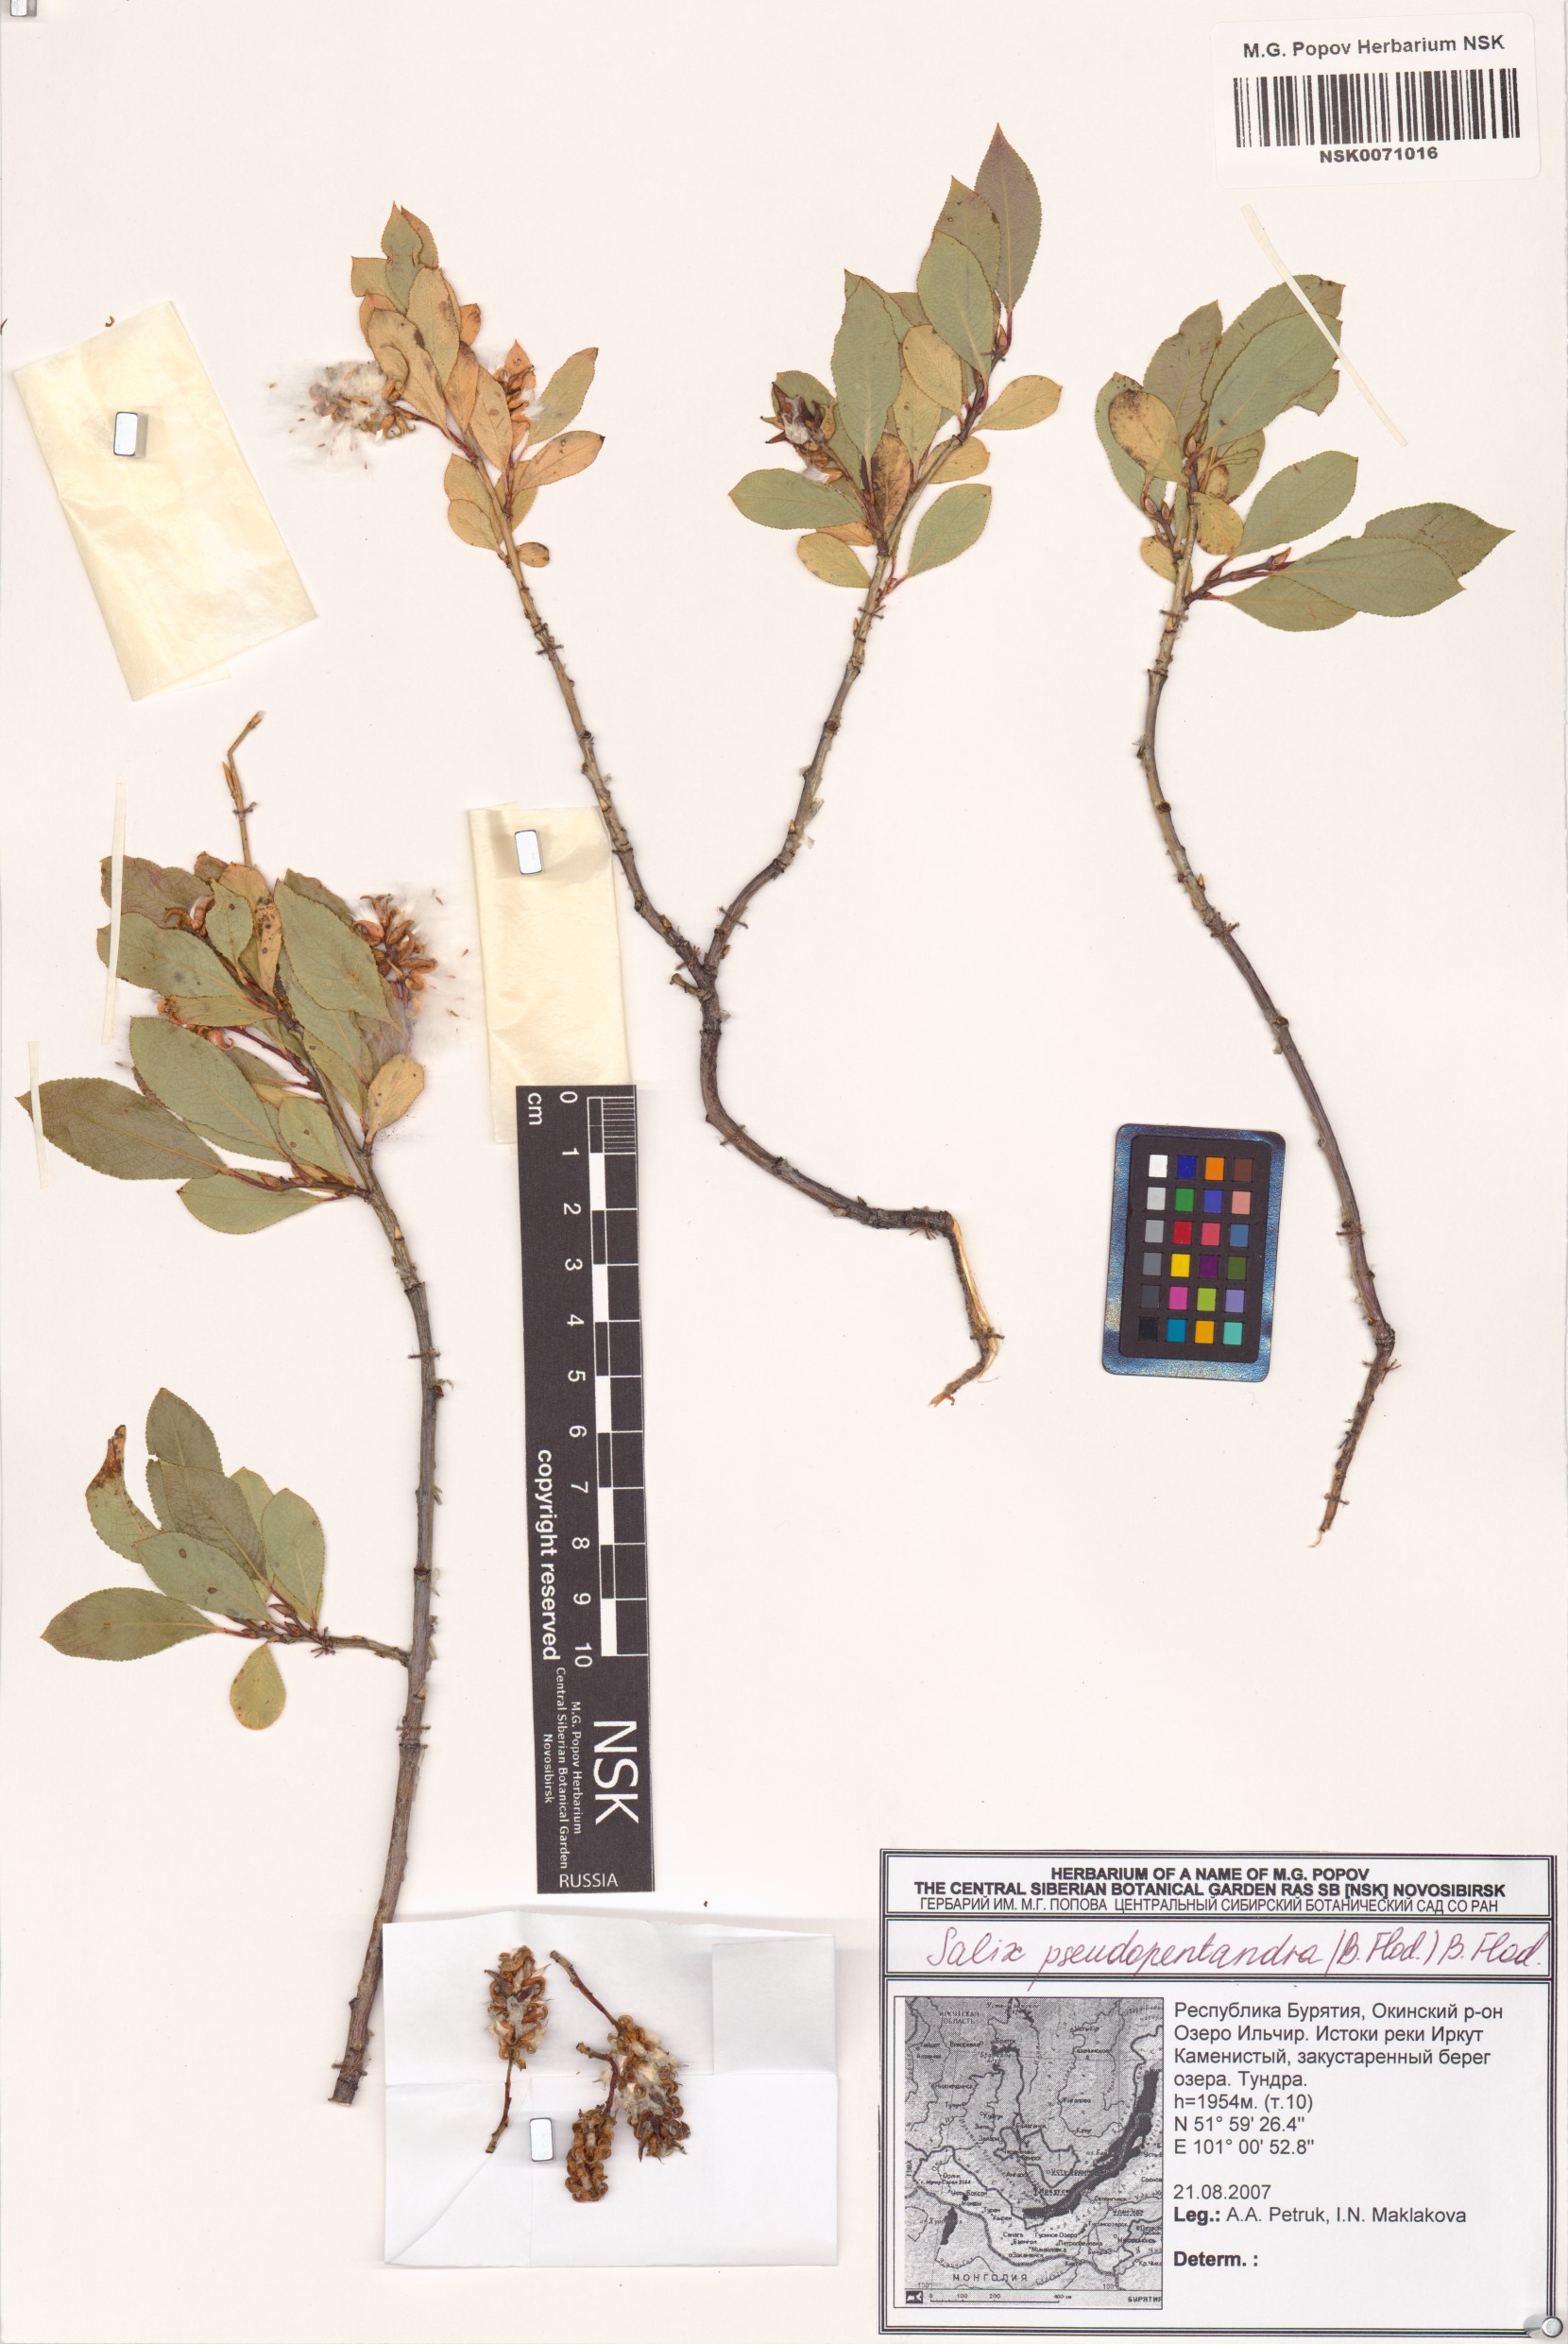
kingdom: Plantae
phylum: Tracheophyta
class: Magnoliopsida
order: Malpighiales
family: Salicaceae
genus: Salix
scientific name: Salix pseudopentandra
